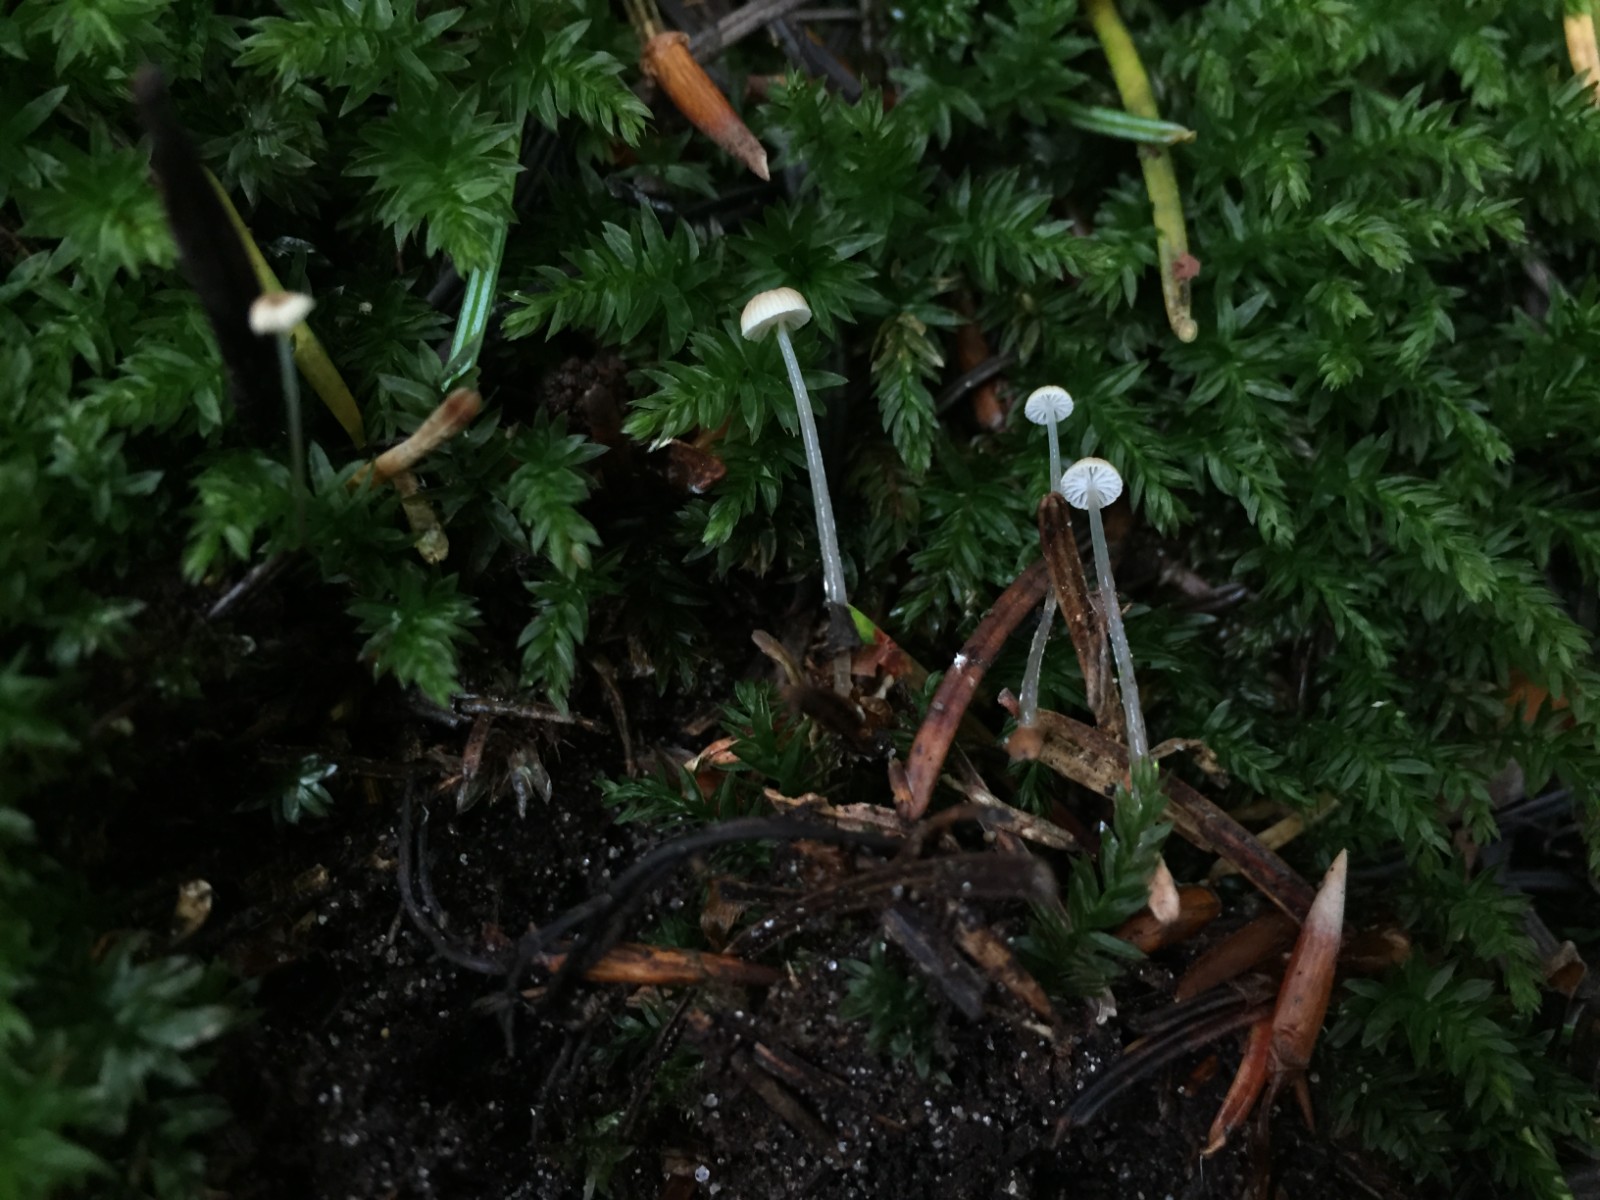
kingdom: Fungi
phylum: Basidiomycota
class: Agaricomycetes
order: Agaricales
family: Mycenaceae
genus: Roridomyces
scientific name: Roridomyces roridus
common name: slimfod
